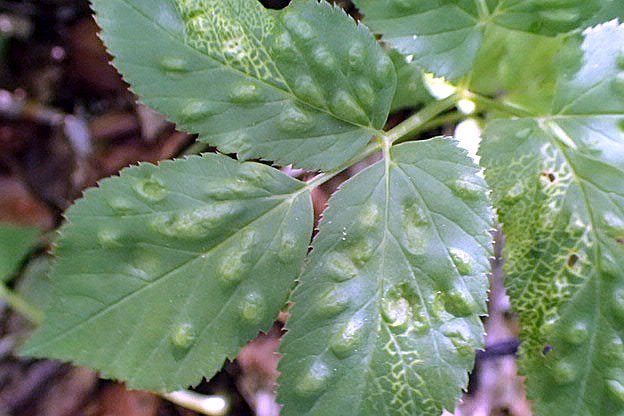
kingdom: Fungi
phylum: Ascomycota
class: Taphrinomycetes
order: Taphrinales
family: Taphrinaceae
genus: Protomyces
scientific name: Protomyces macrosporus
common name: skvalderkål-vablesæk
